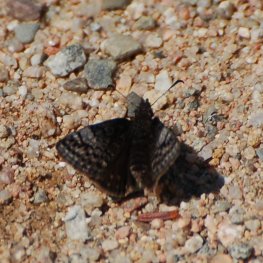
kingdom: Animalia
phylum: Arthropoda
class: Insecta
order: Lepidoptera
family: Hesperiidae
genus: Erynnis
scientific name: Erynnis icelus
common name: Dreamy Duskywing
